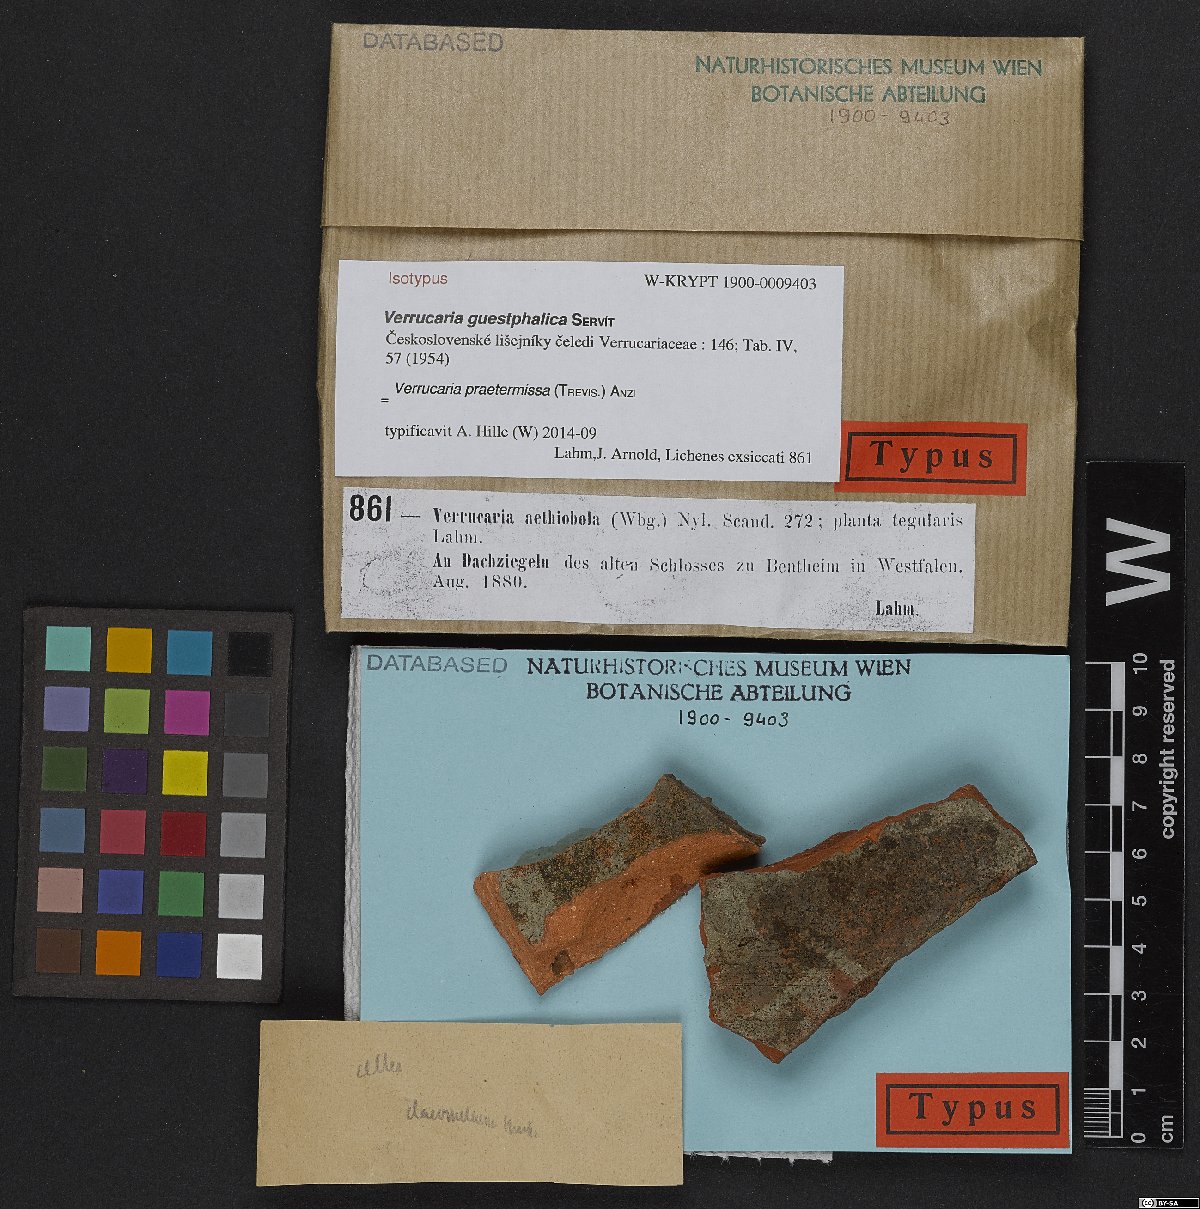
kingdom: Fungi
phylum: Ascomycota
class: Eurotiomycetes
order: Verrucariales
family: Verrucariaceae
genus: Verrucaria
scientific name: Verrucaria
